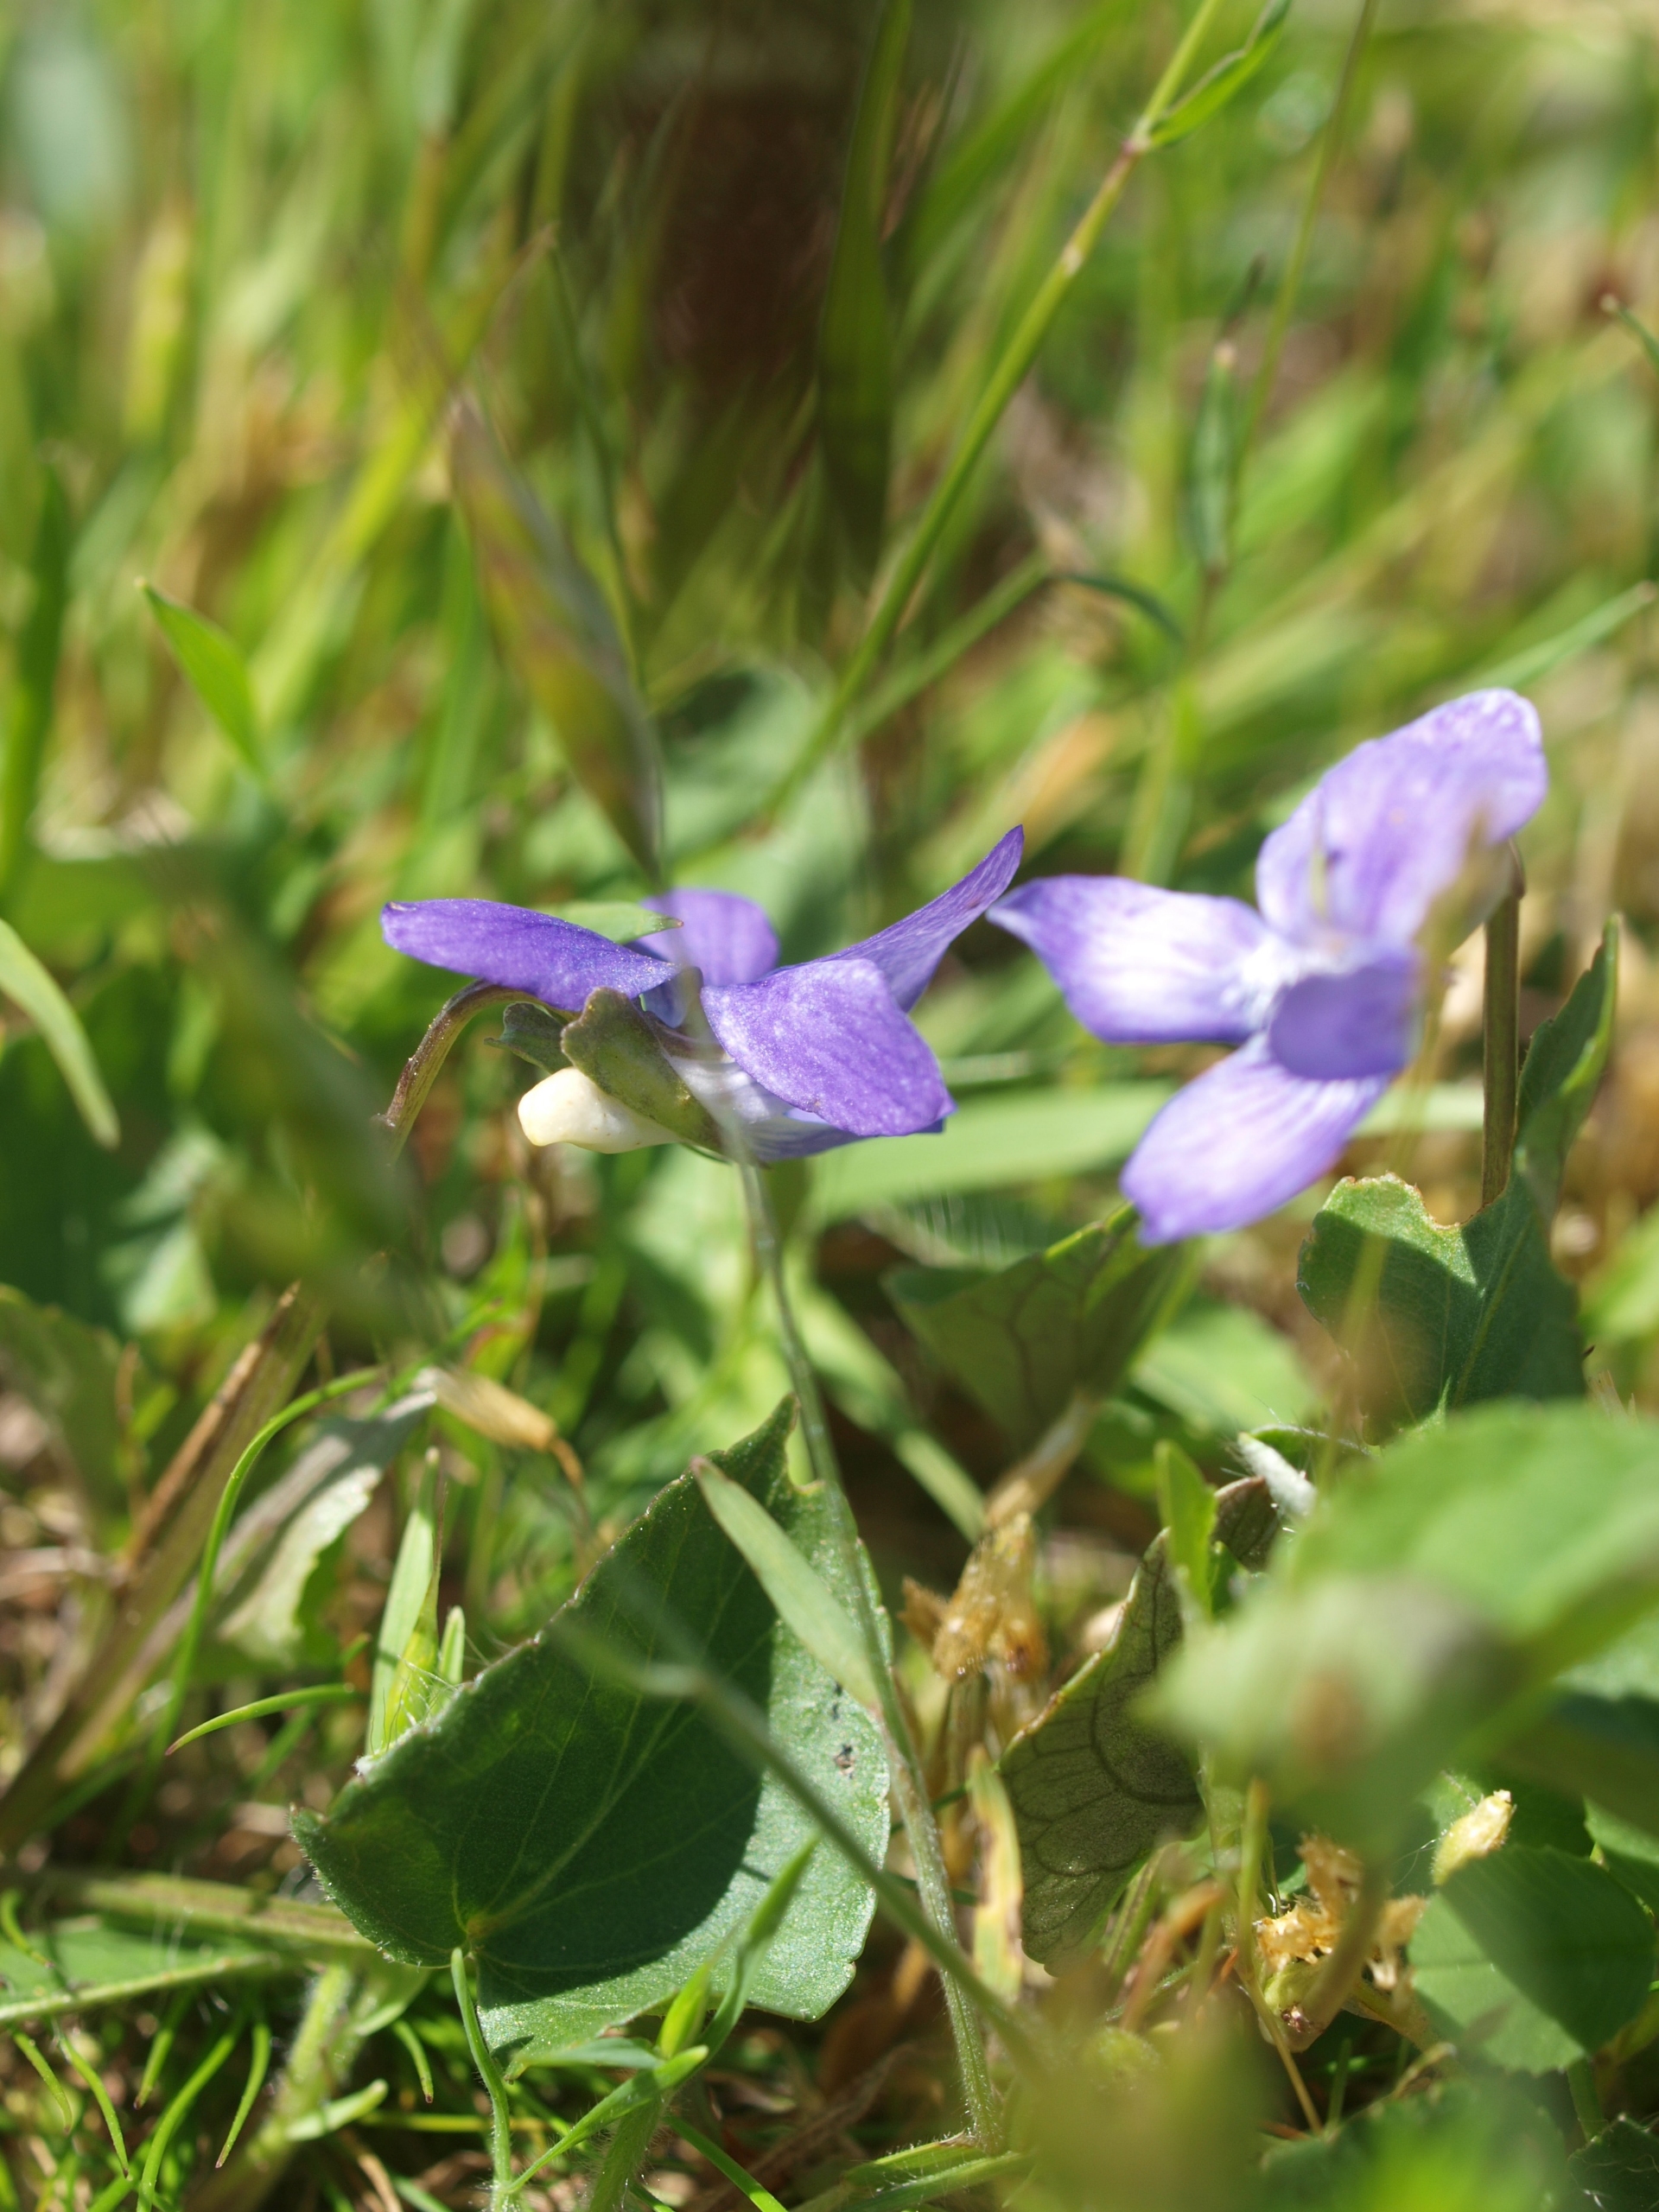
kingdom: Plantae
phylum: Tracheophyta
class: Magnoliopsida
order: Malpighiales
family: Violaceae
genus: Viola
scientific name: Viola canina
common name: Hunde-viol
